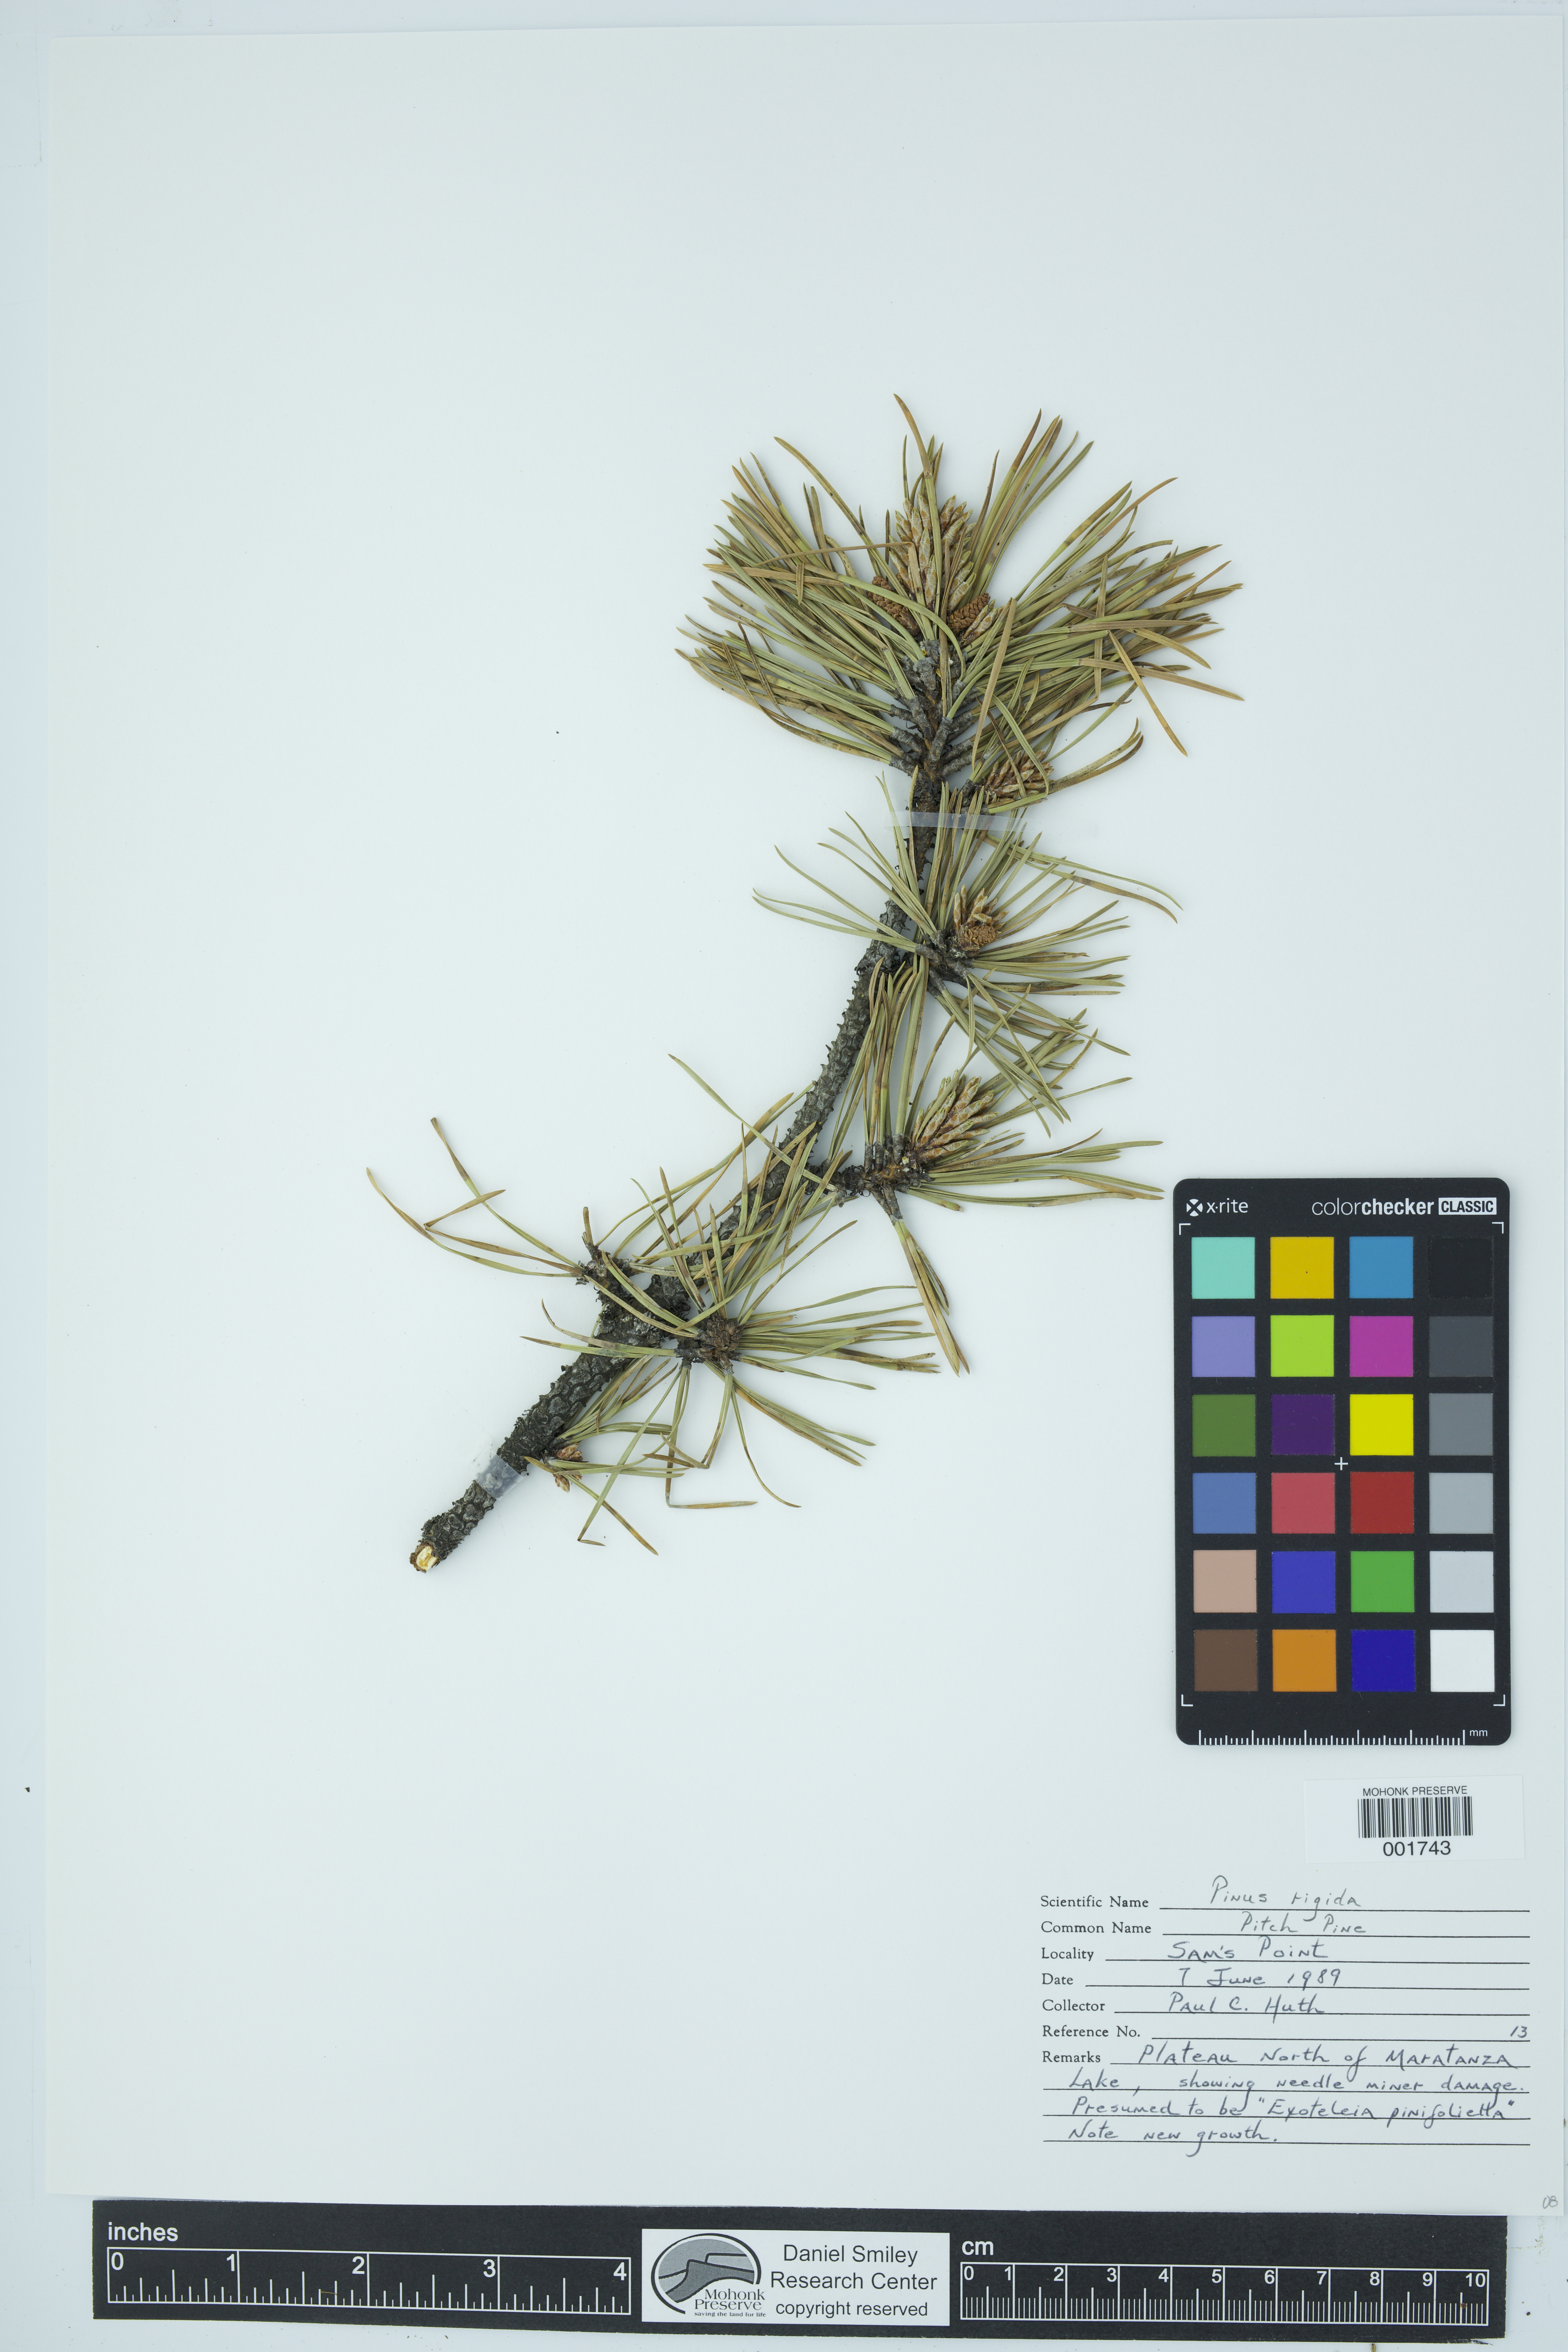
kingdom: Plantae
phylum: Tracheophyta
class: Pinopsida
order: Pinales
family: Pinaceae
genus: Pinus
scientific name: Pinus rigida
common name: Pitch pine
